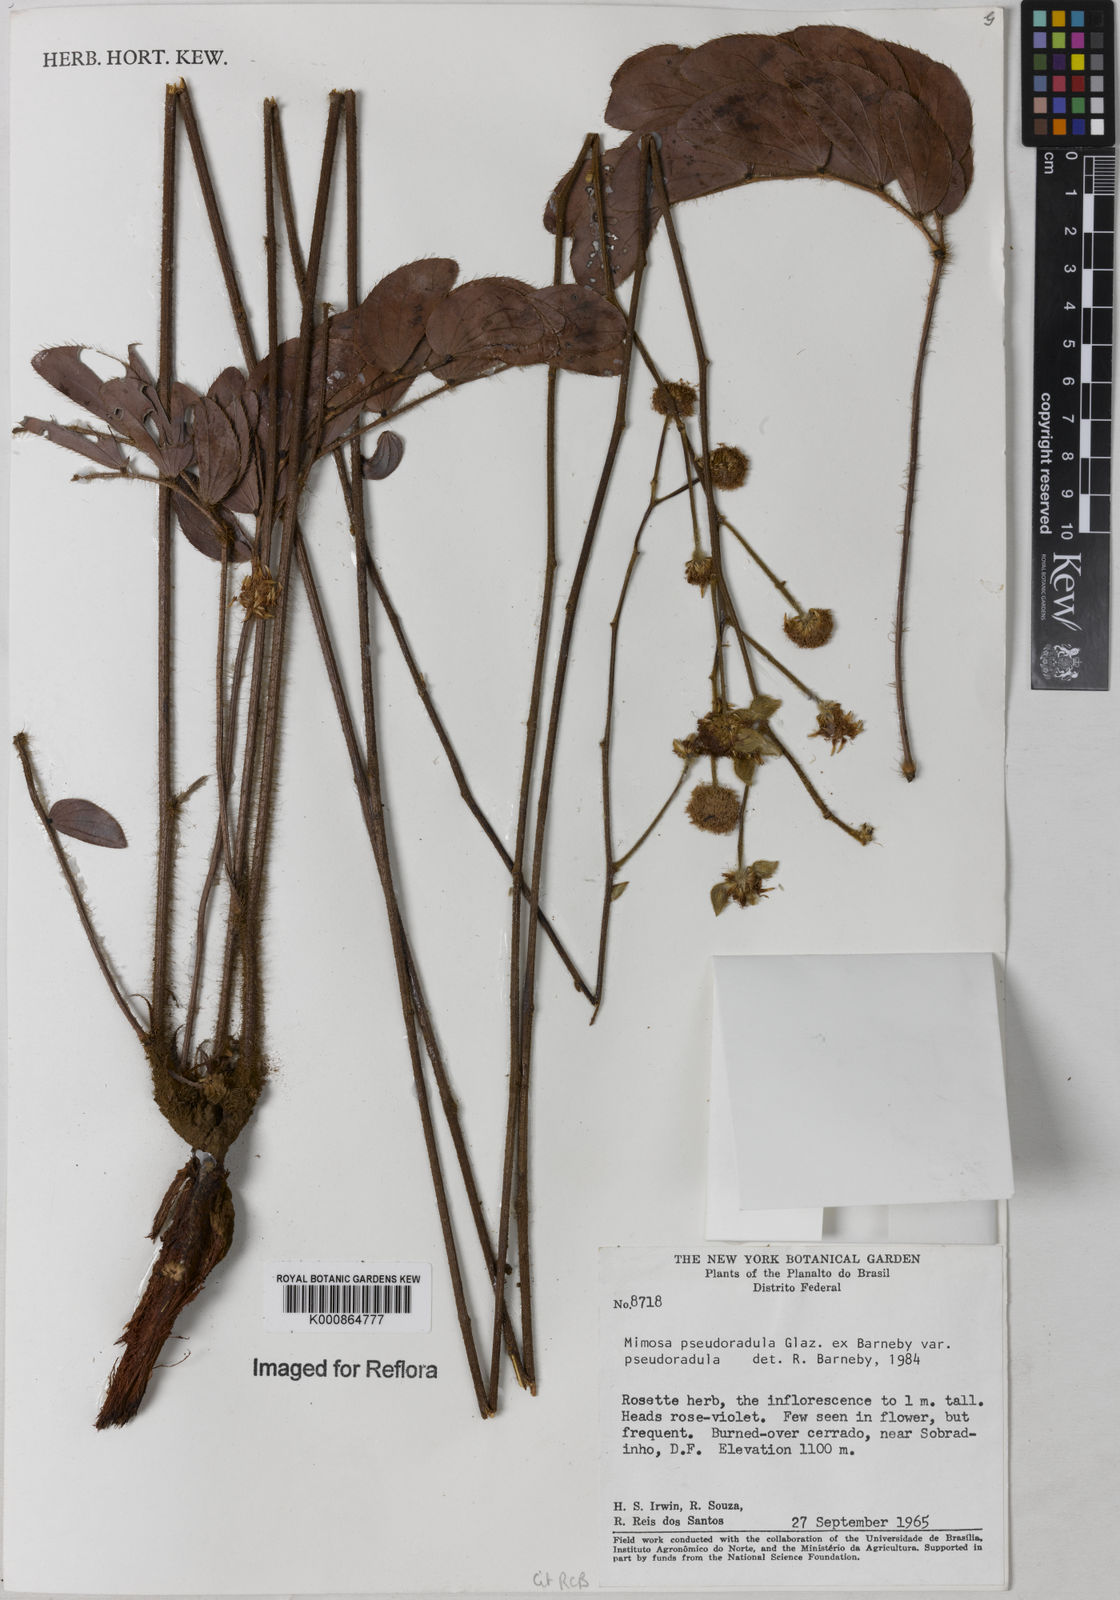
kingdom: Plantae
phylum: Tracheophyta
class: Magnoliopsida
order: Fabales
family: Fabaceae
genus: Mimosa
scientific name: Mimosa pseudoradula
